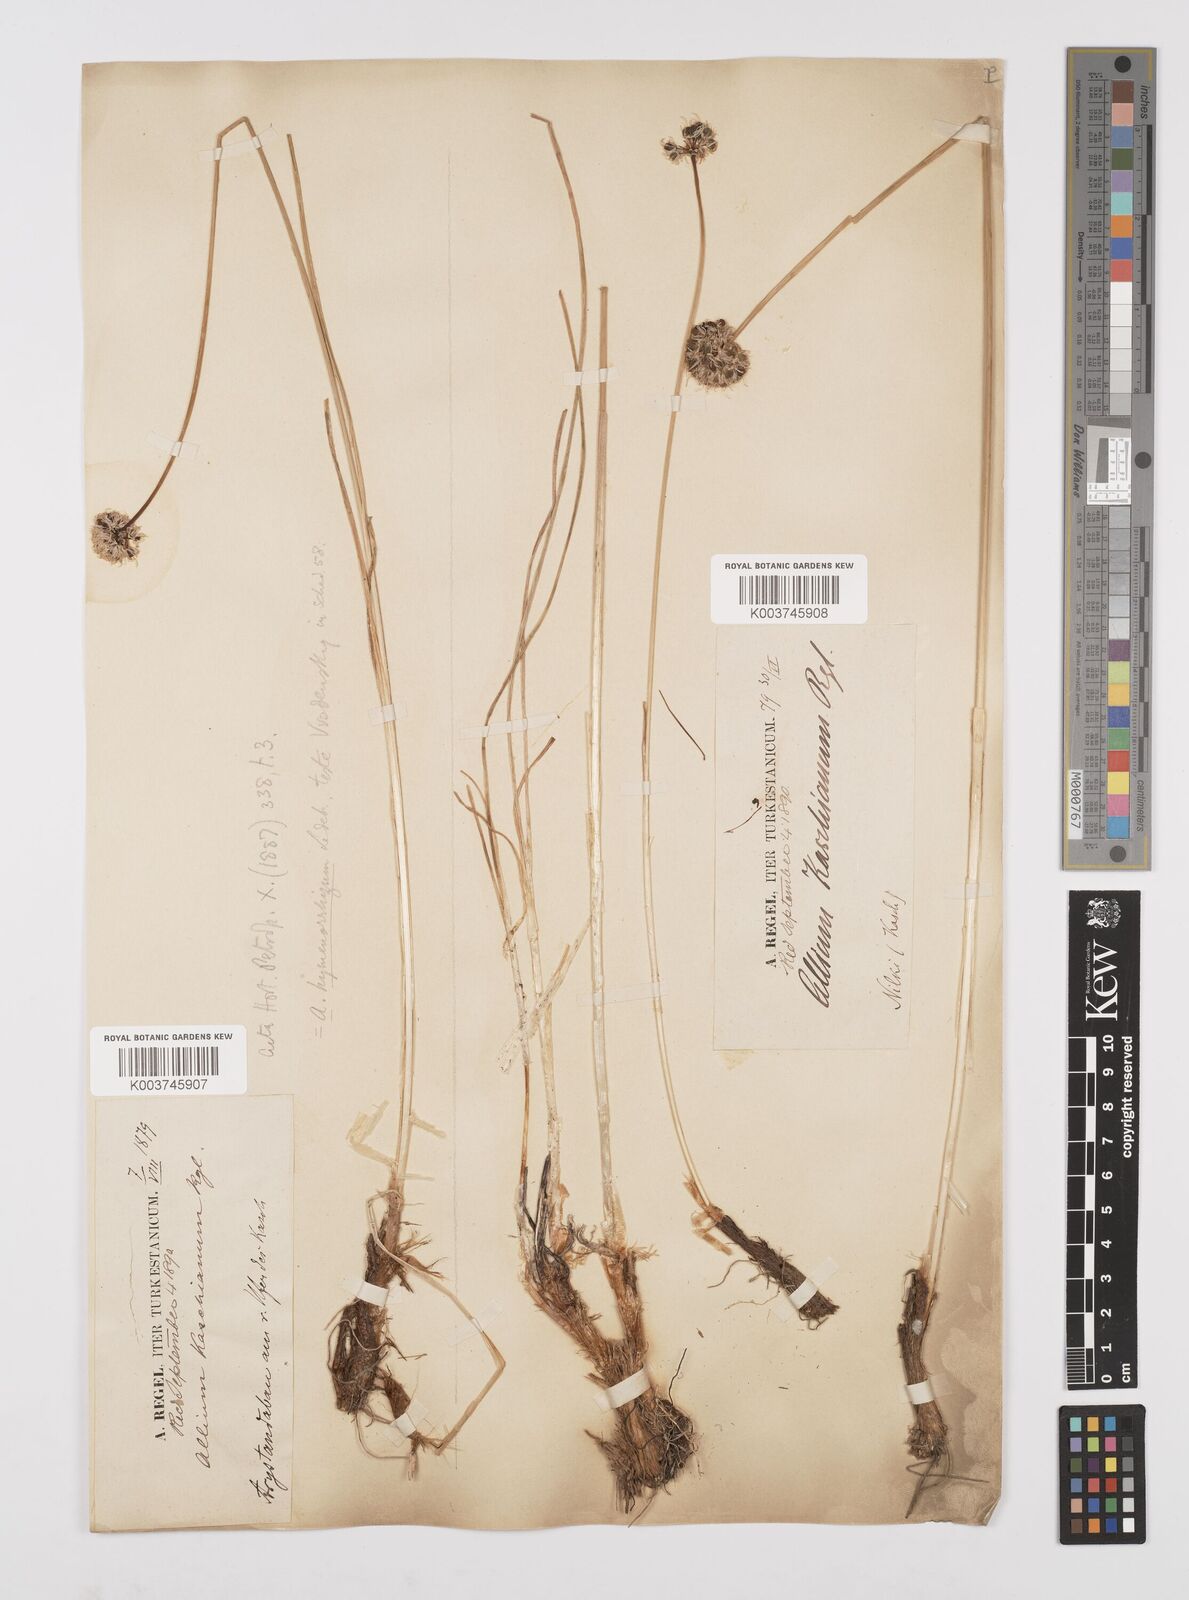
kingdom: Plantae
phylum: Tracheophyta
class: Liliopsida
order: Asparagales
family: Amaryllidaceae
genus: Allium
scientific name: Allium hymenorhizum
